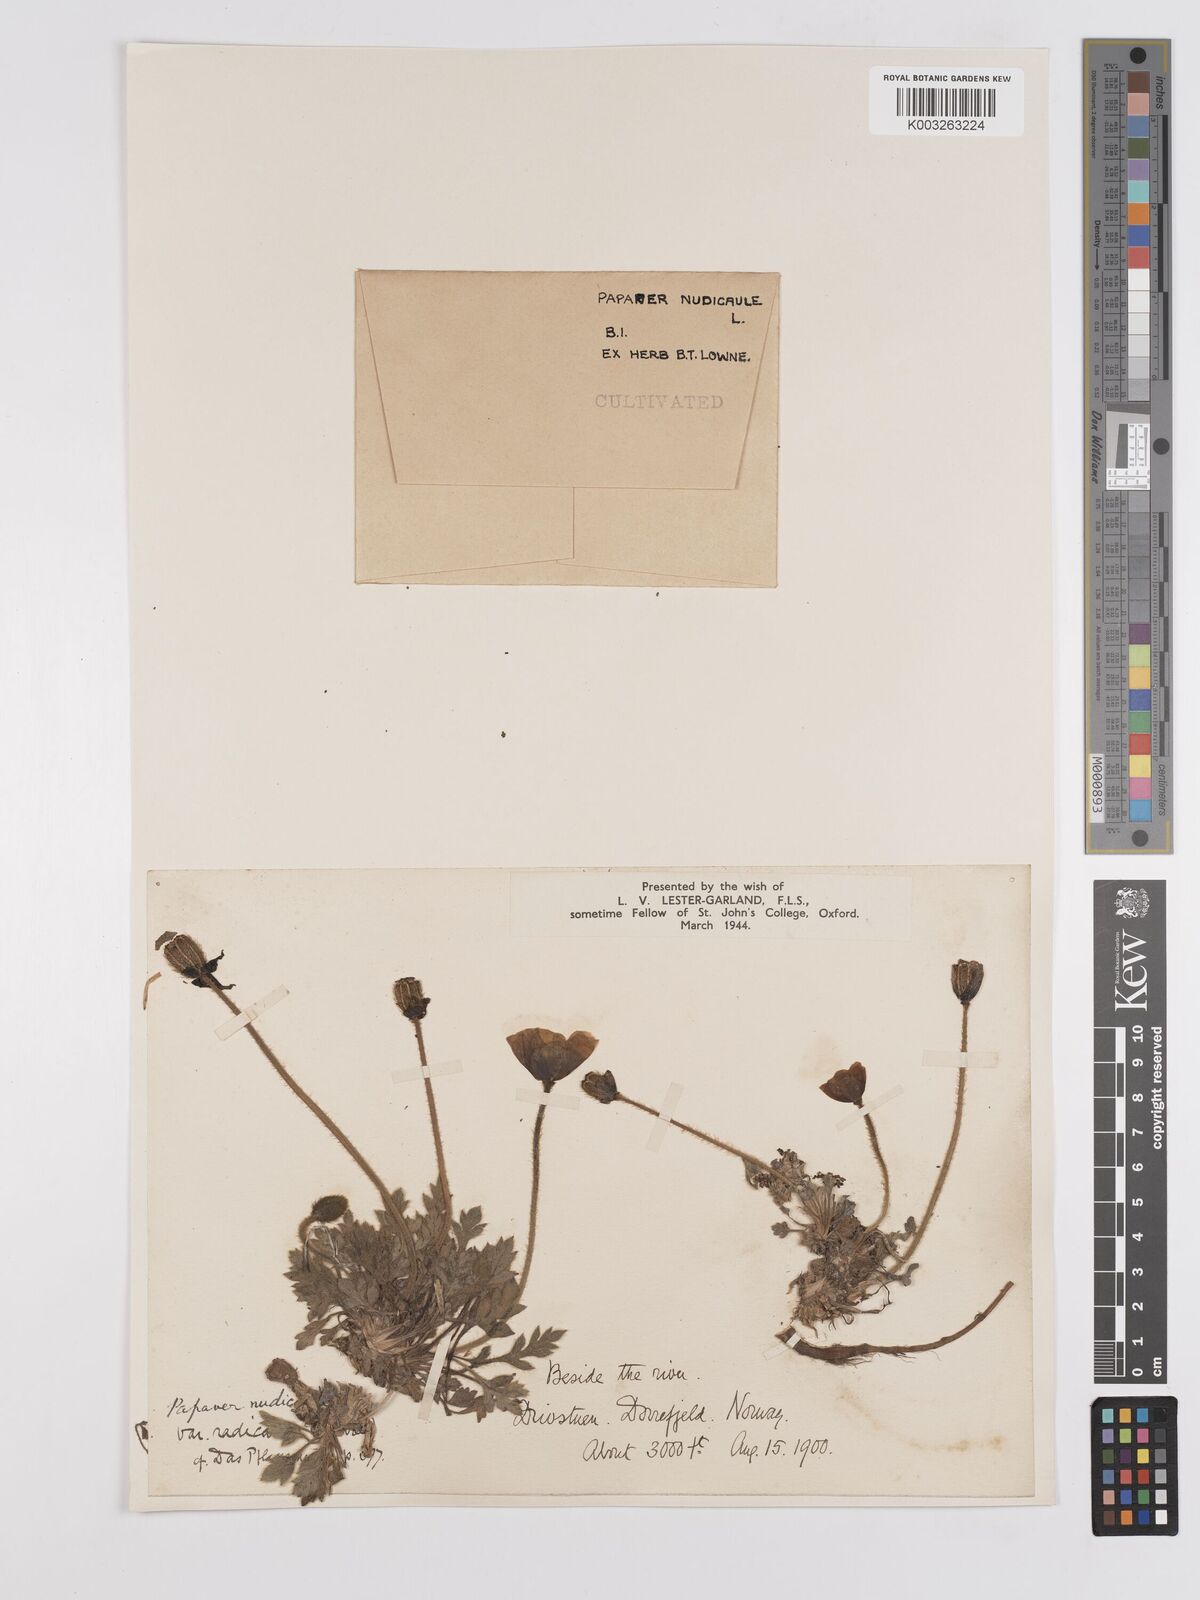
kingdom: Plantae
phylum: Tracheophyta
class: Magnoliopsida
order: Ranunculales
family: Papaveraceae
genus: Papaver
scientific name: Papaver radicatum
